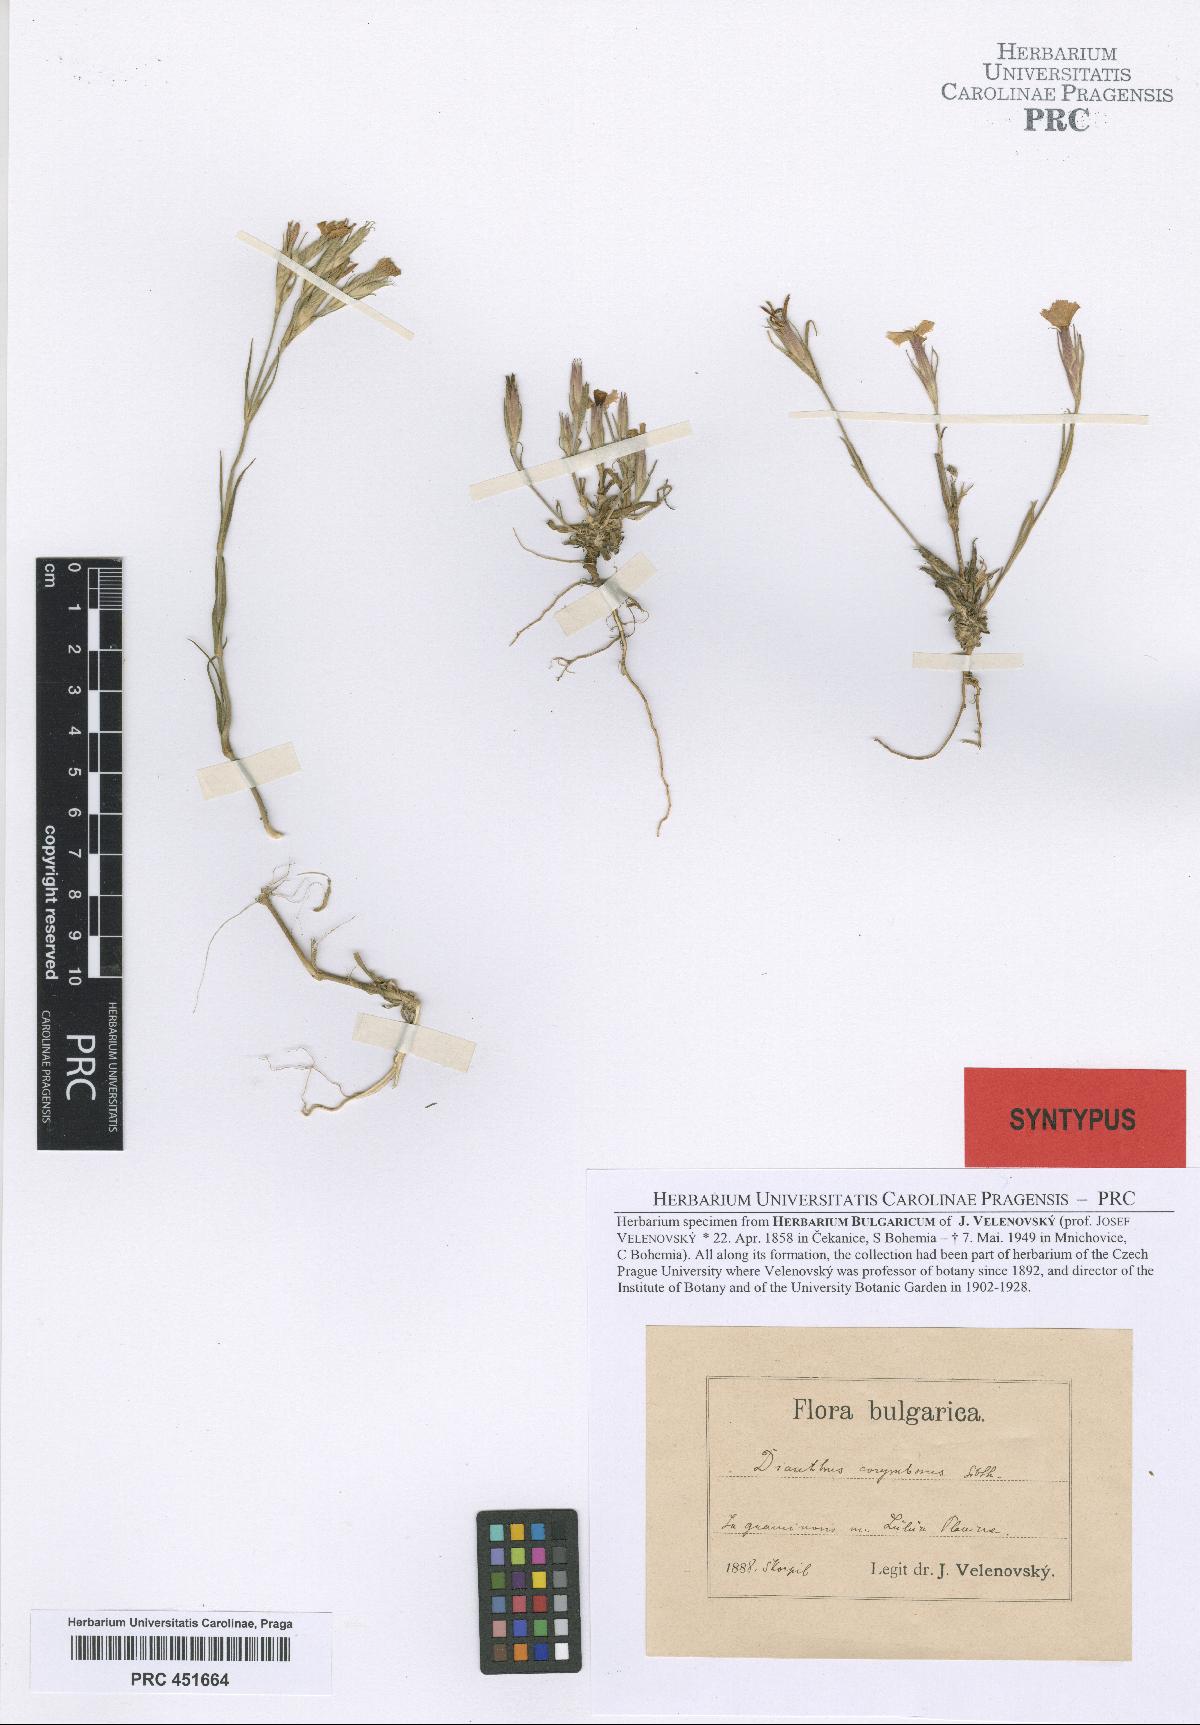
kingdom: Plantae
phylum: Tracheophyta
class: Magnoliopsida
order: Caryophyllales
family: Caryophyllaceae
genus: Dianthus
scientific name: Dianthus armeria
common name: Deptford pink
